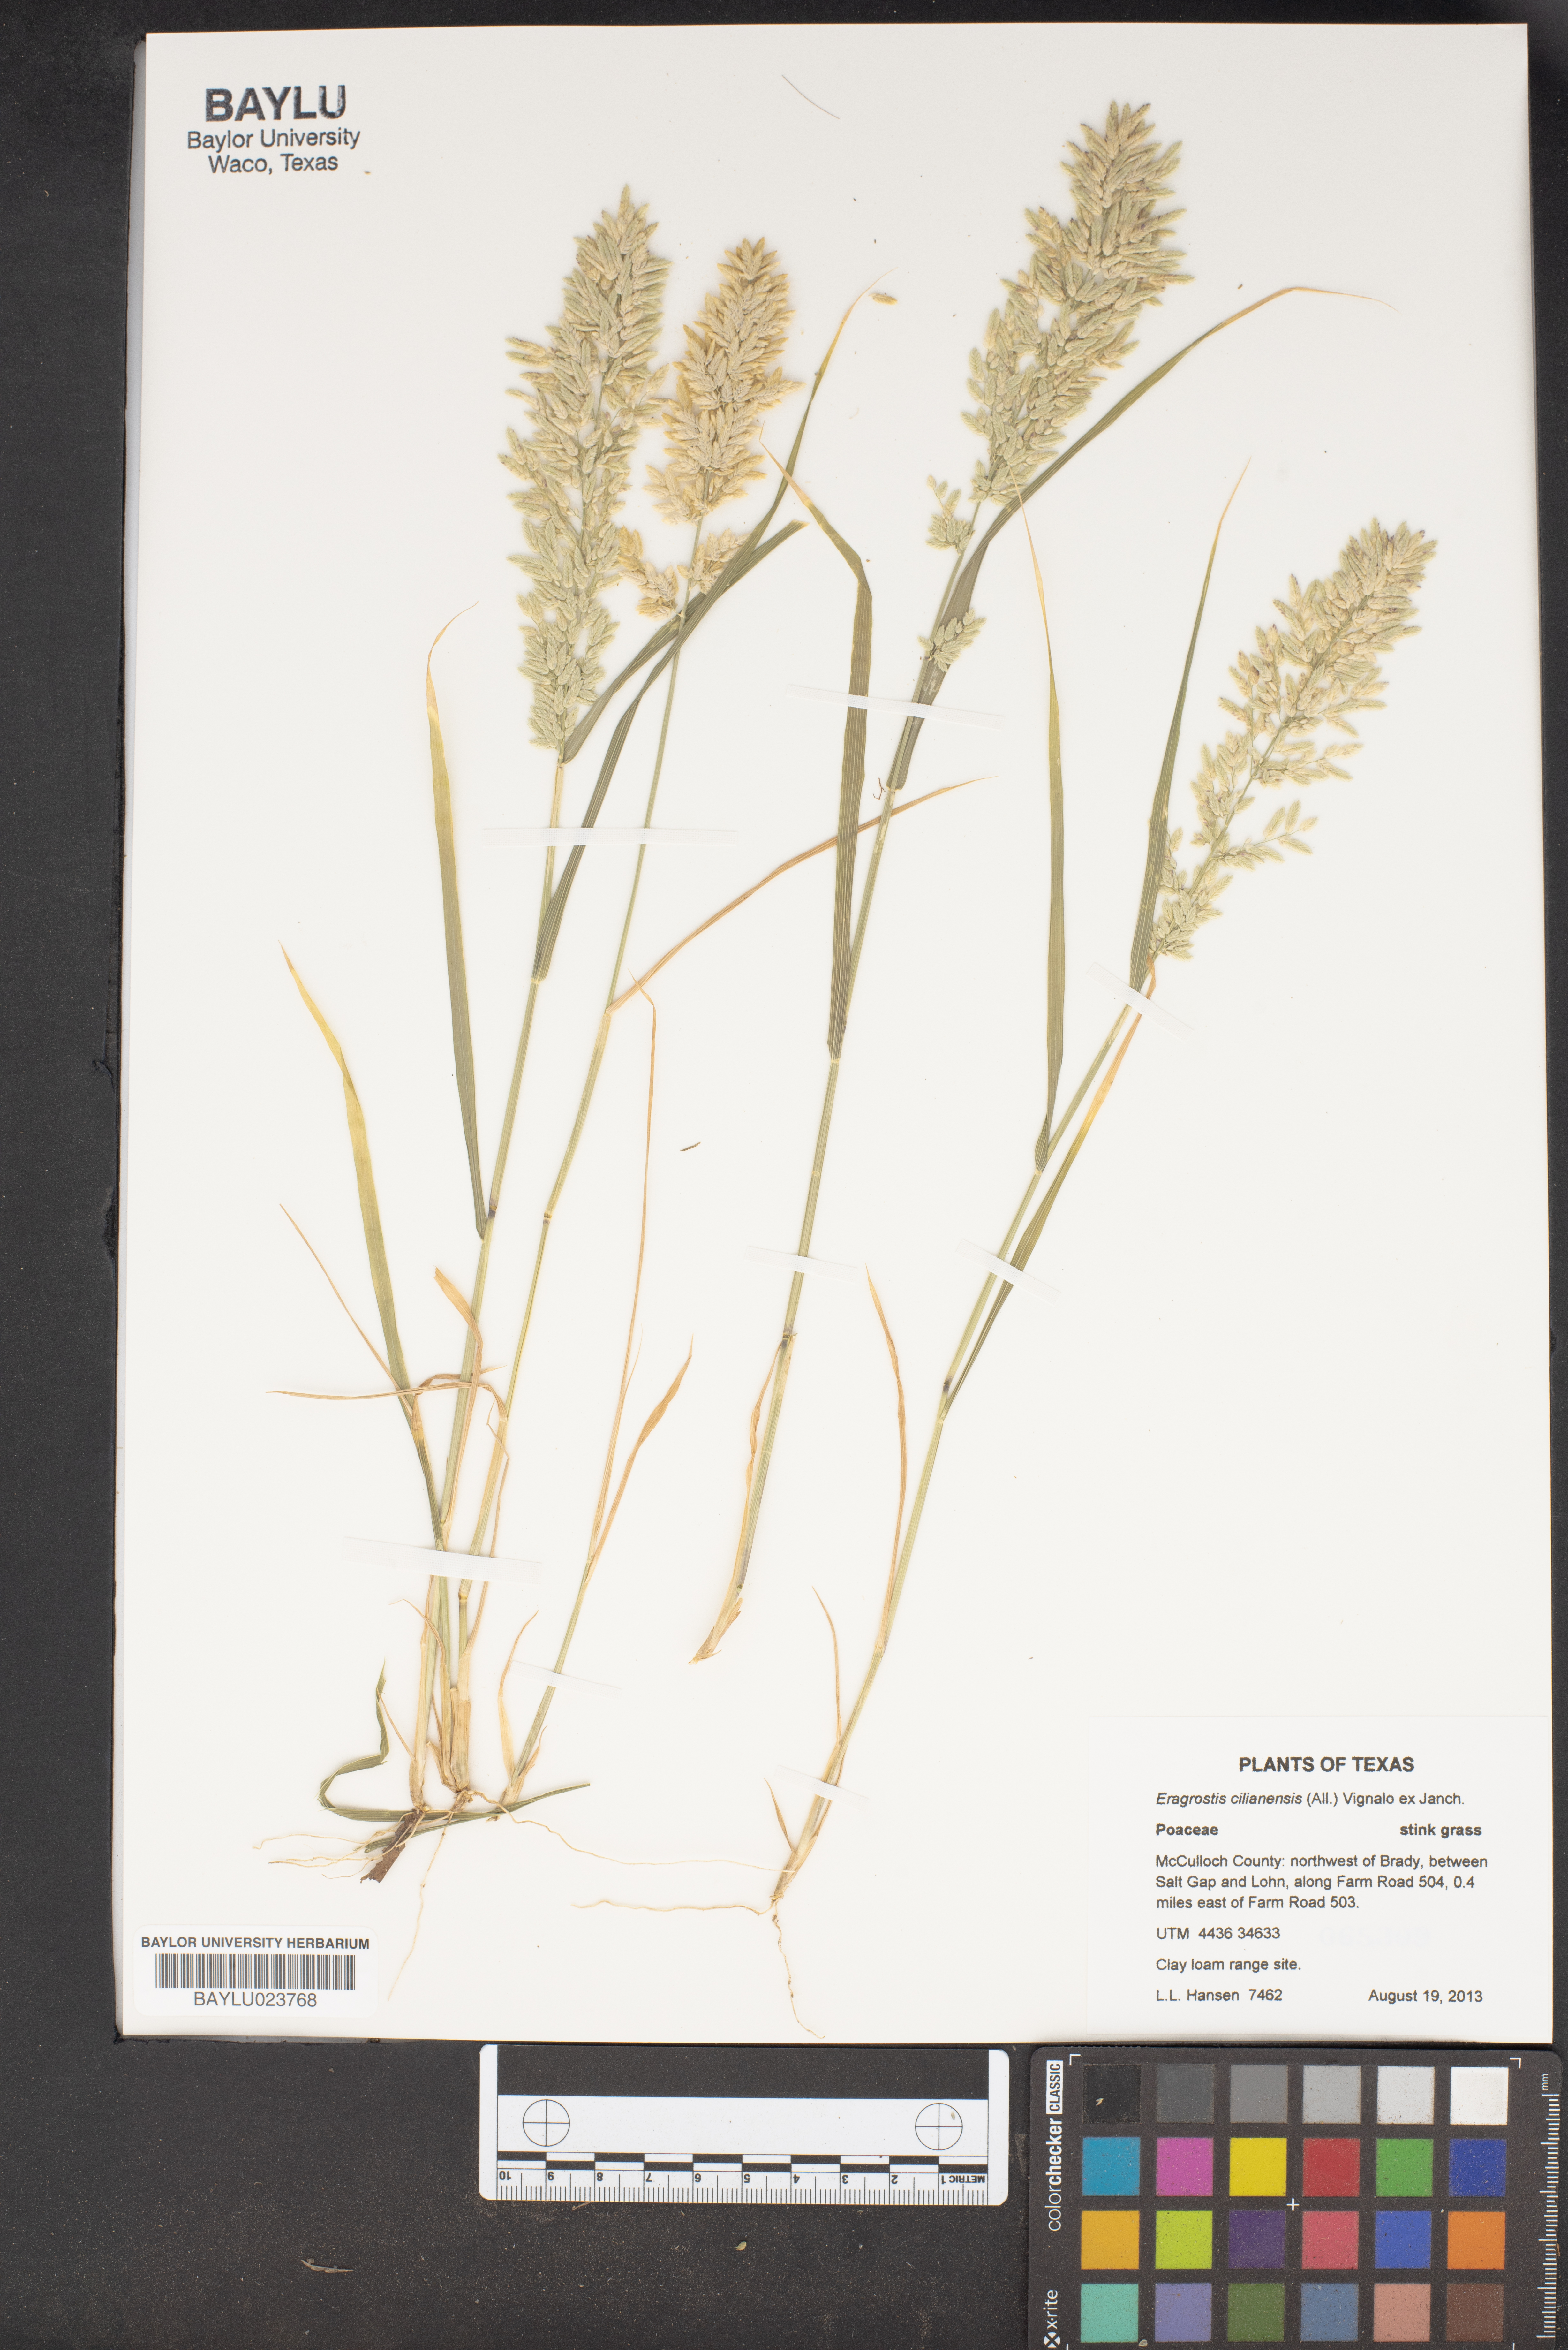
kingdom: Plantae
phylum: Tracheophyta
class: Liliopsida
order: Poales
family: Poaceae
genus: Eragrostis
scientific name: Eragrostis cilianensis
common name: Stinkgrass
